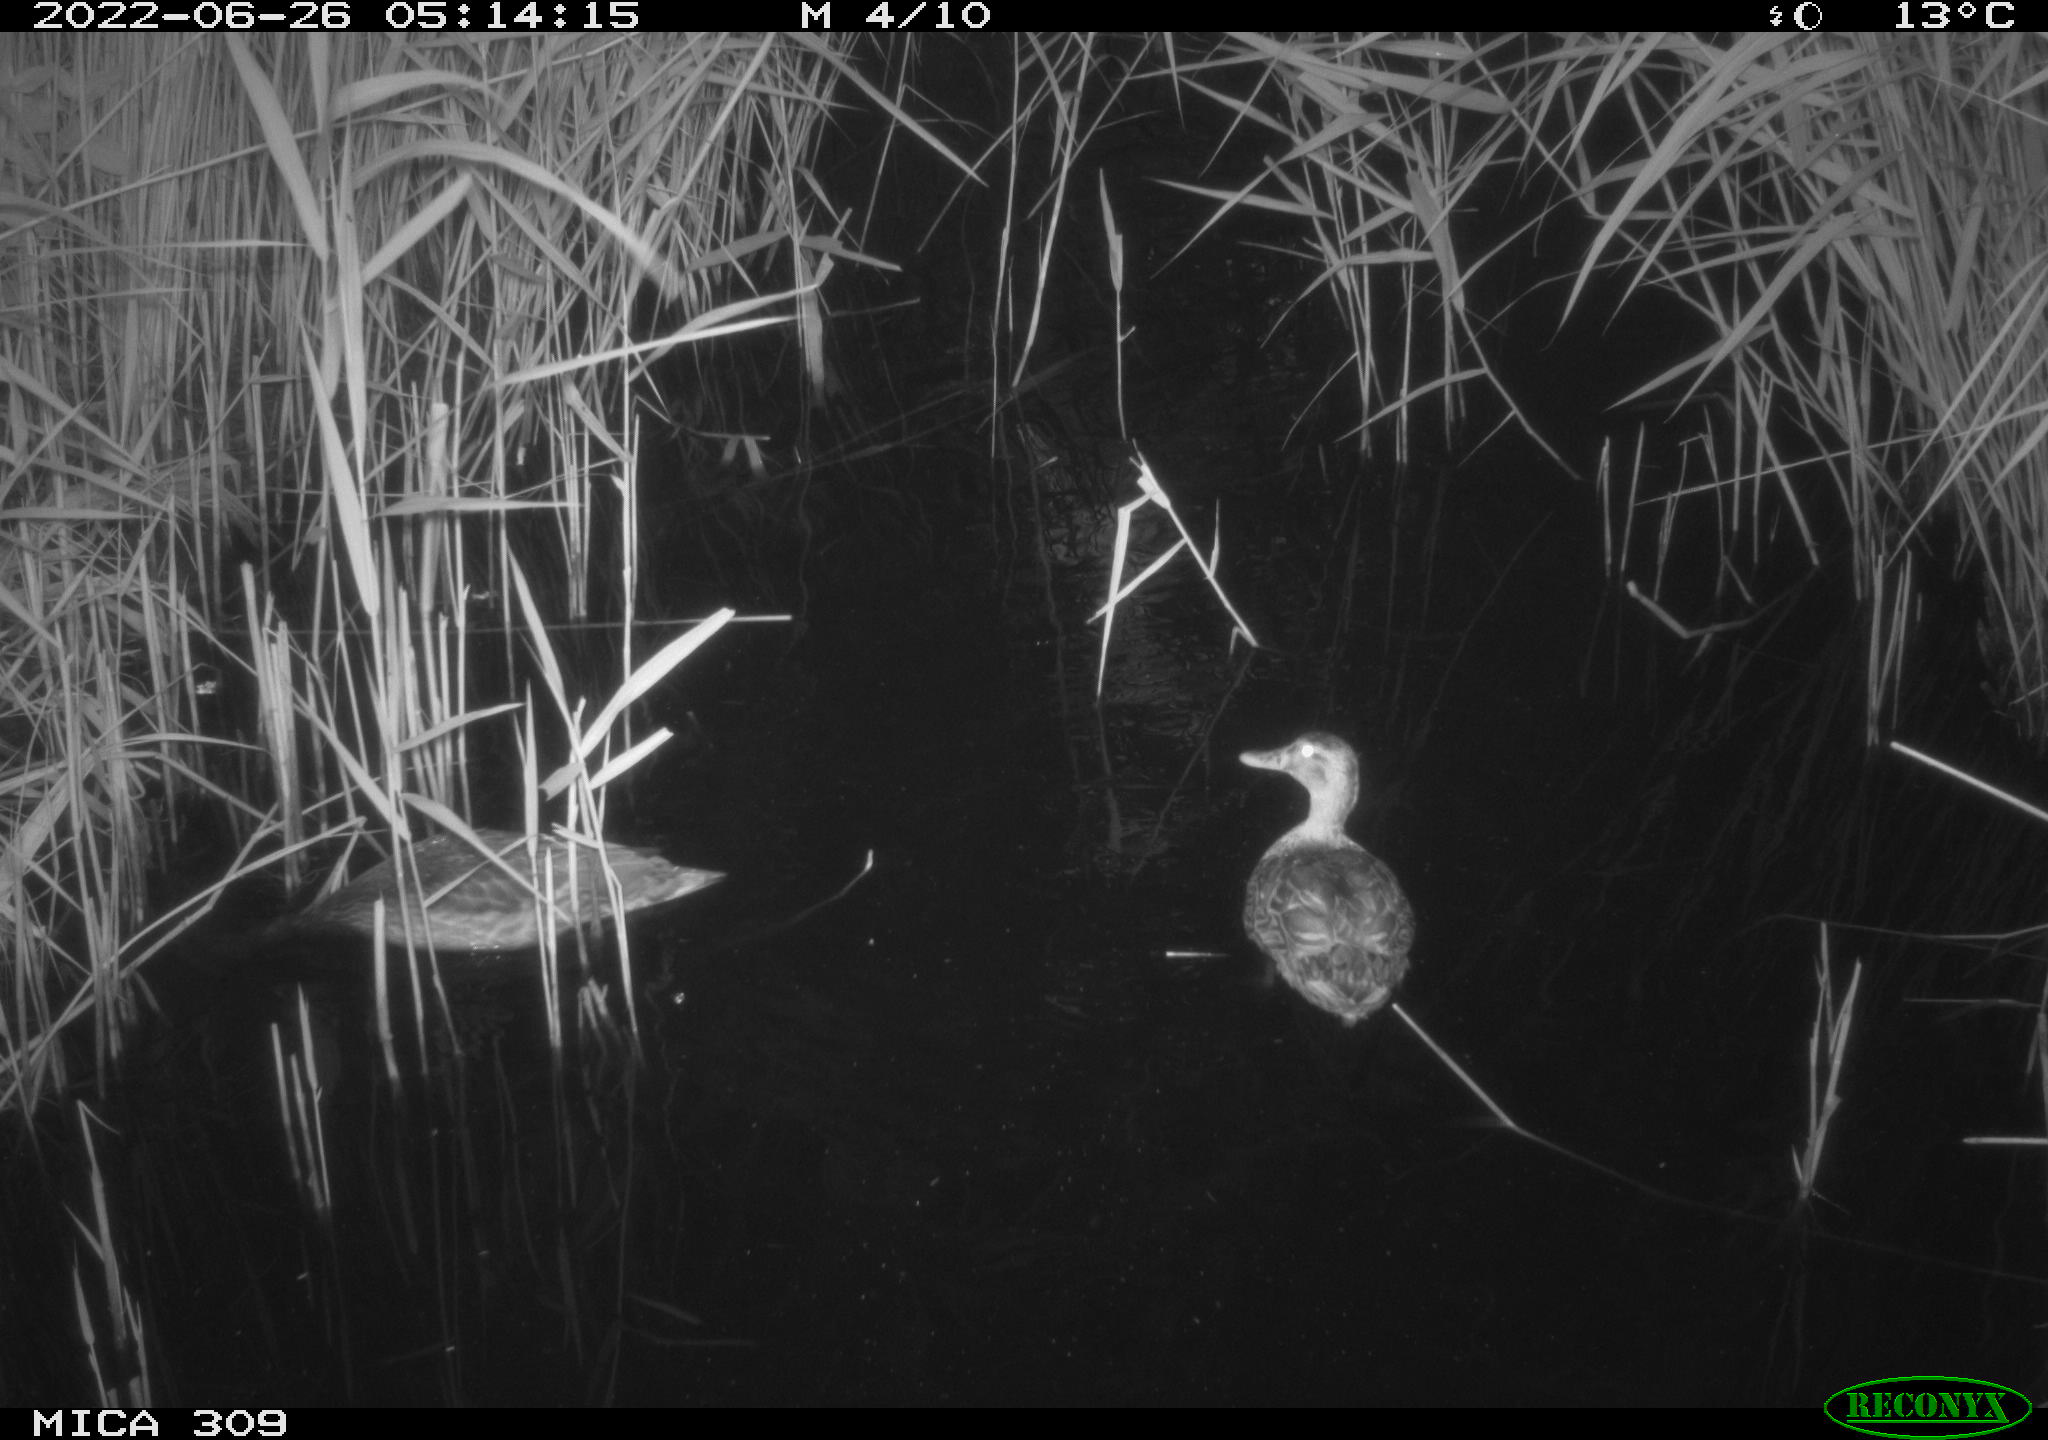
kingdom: Animalia
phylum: Chordata
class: Aves
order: Anseriformes
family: Anatidae
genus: Anas
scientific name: Anas platyrhynchos
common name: Mallard
